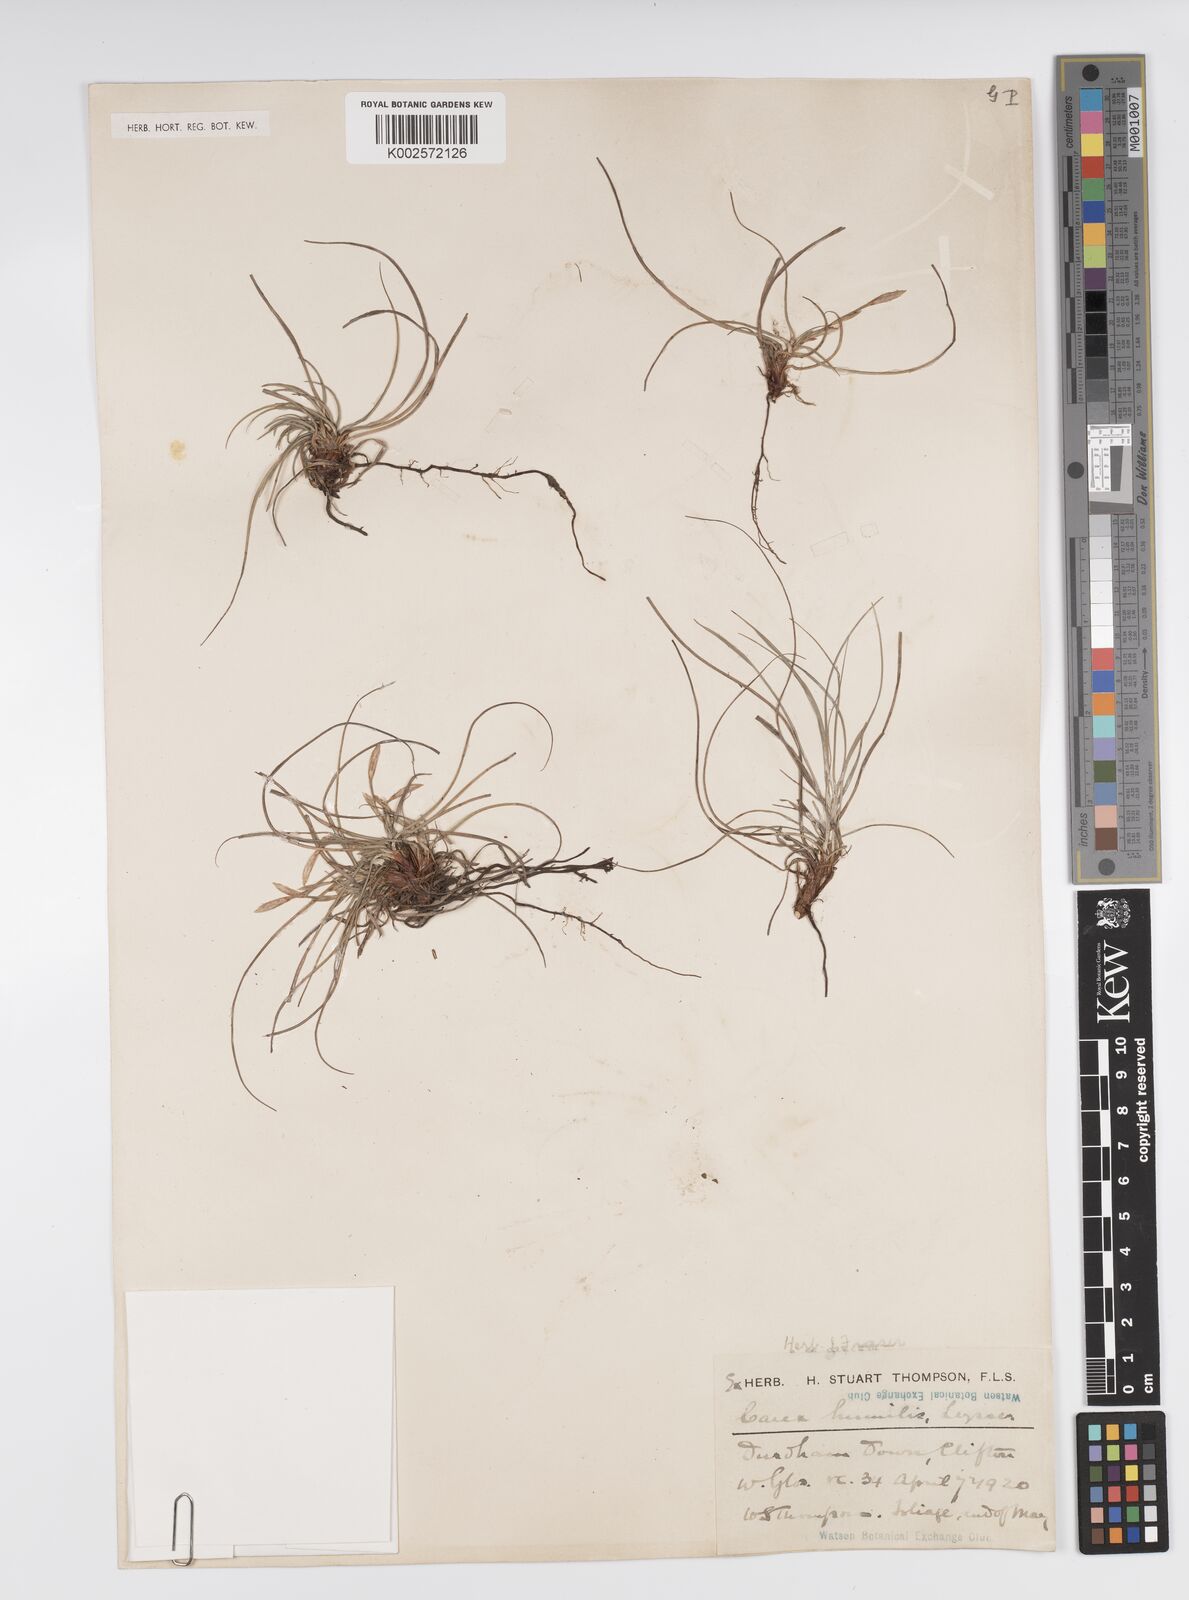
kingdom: Plantae
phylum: Tracheophyta
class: Liliopsida
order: Poales
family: Cyperaceae
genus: Carex
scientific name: Carex humilis
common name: Dwarf sedge
